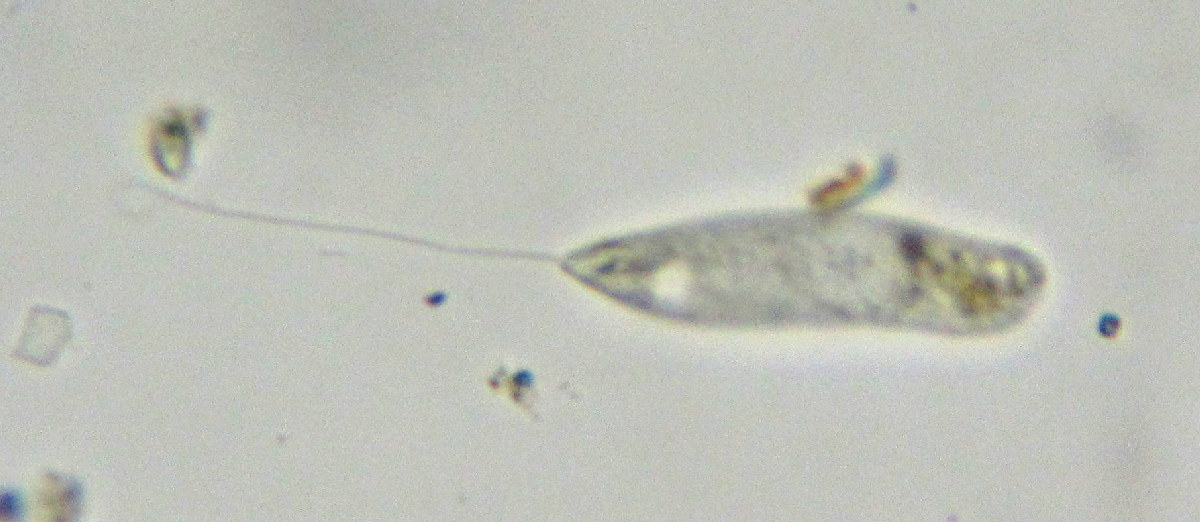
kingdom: Protozoa
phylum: Euglenozoa
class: Euglenoidea
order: Peranemida
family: Peranemidae
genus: Peranema
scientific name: Peranema Pseudoperanema trichophorum
